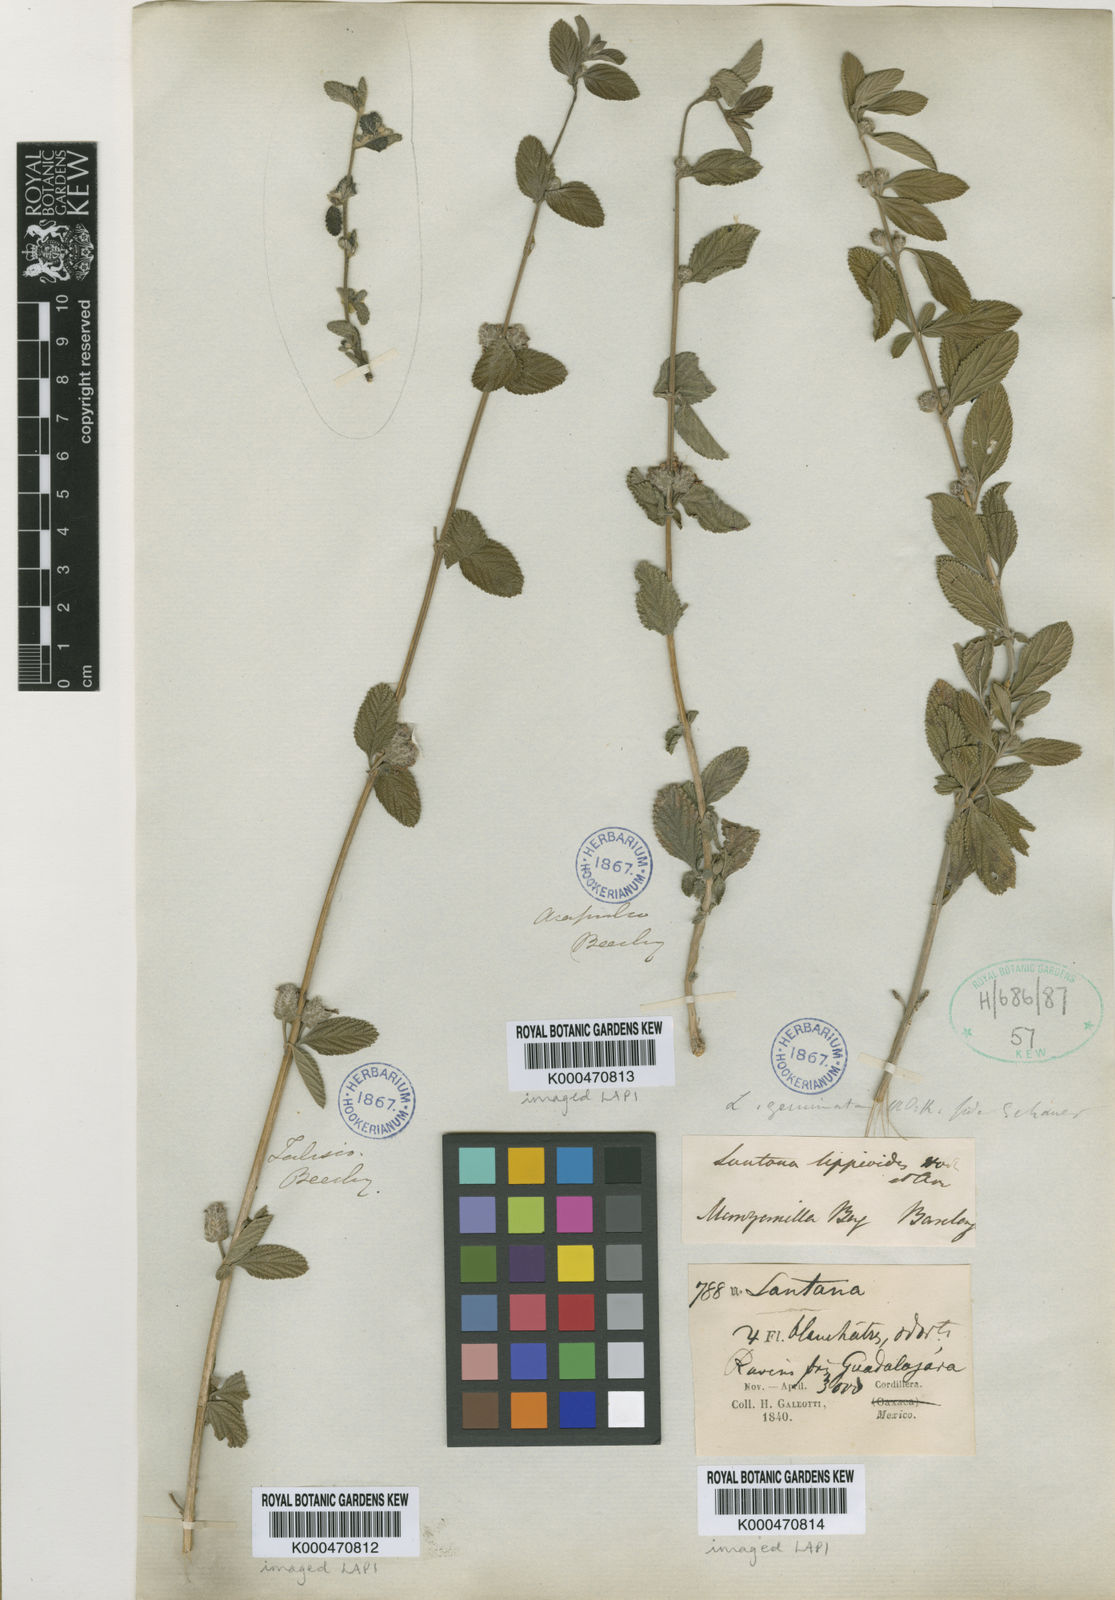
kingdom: Plantae
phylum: Tracheophyta
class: Magnoliopsida
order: Lamiales
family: Verbenaceae
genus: Lippia
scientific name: Lippia alba
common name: Bushy matgrass
